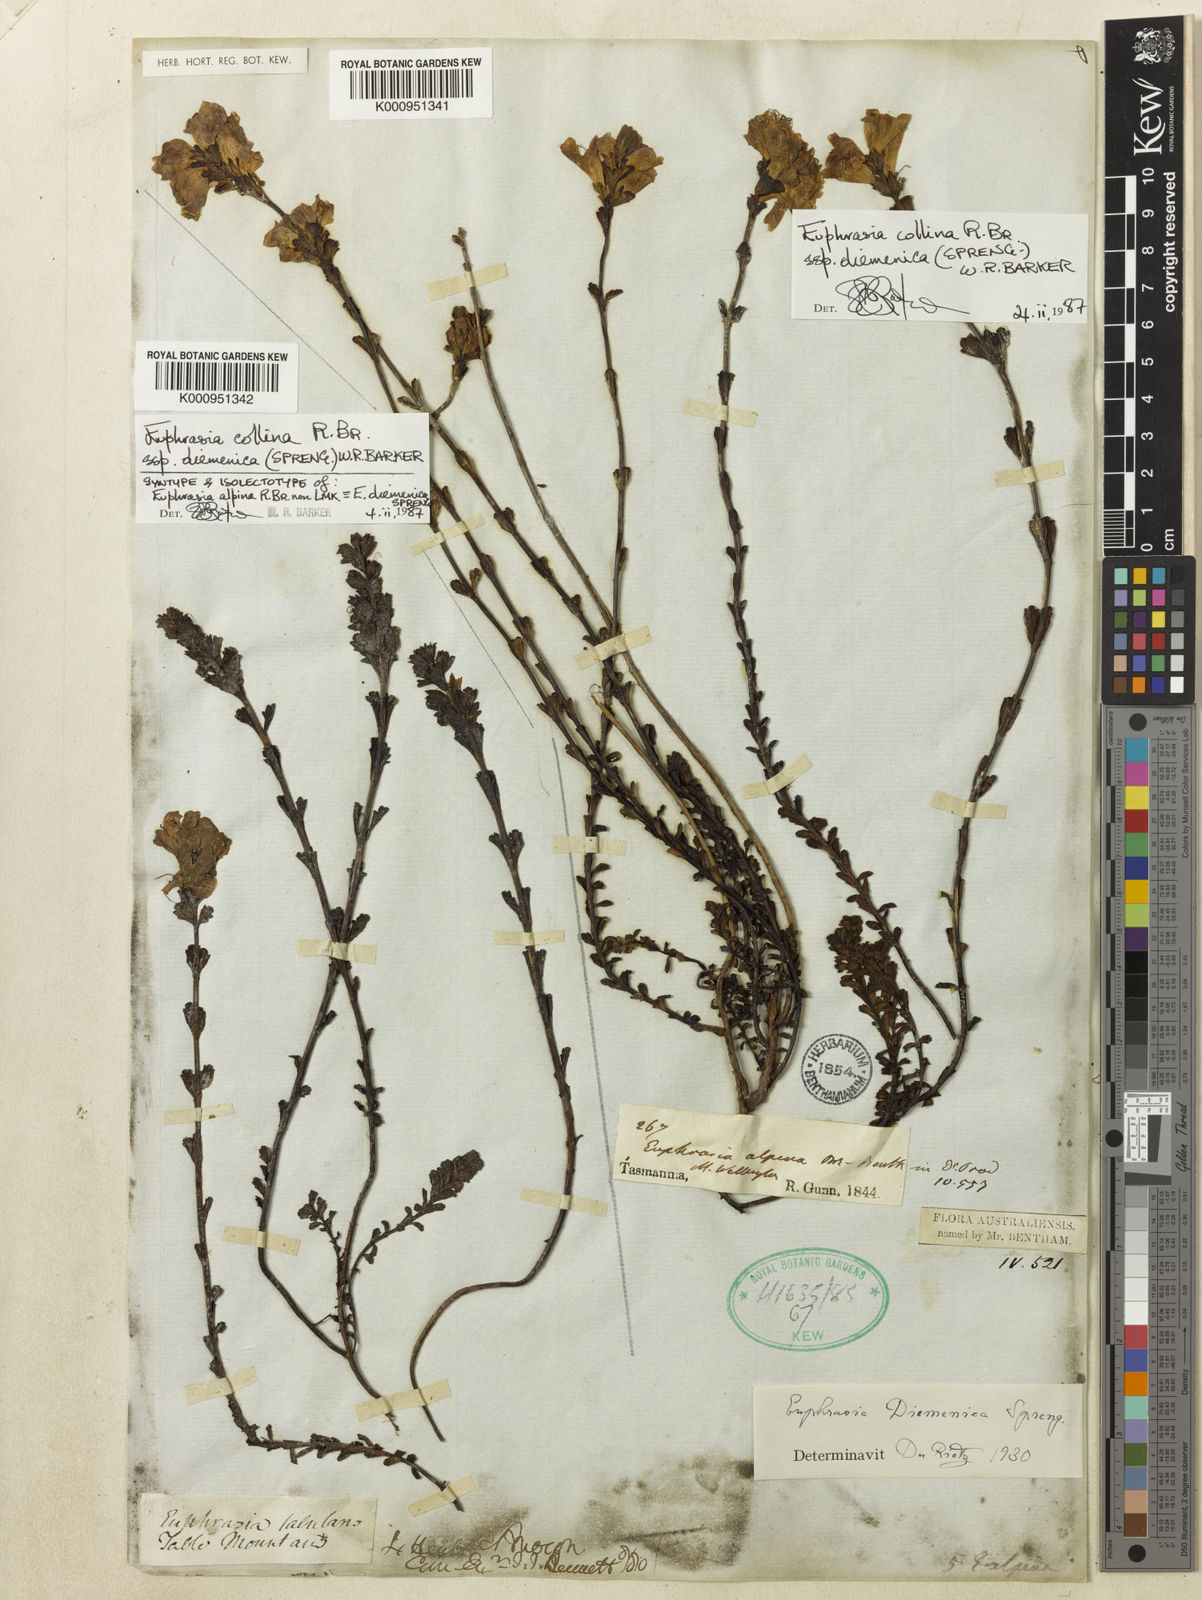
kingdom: Plantae
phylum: Tracheophyta
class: Magnoliopsida
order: Lamiales
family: Orobanchaceae
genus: Euphrasia
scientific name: Euphrasia collina
